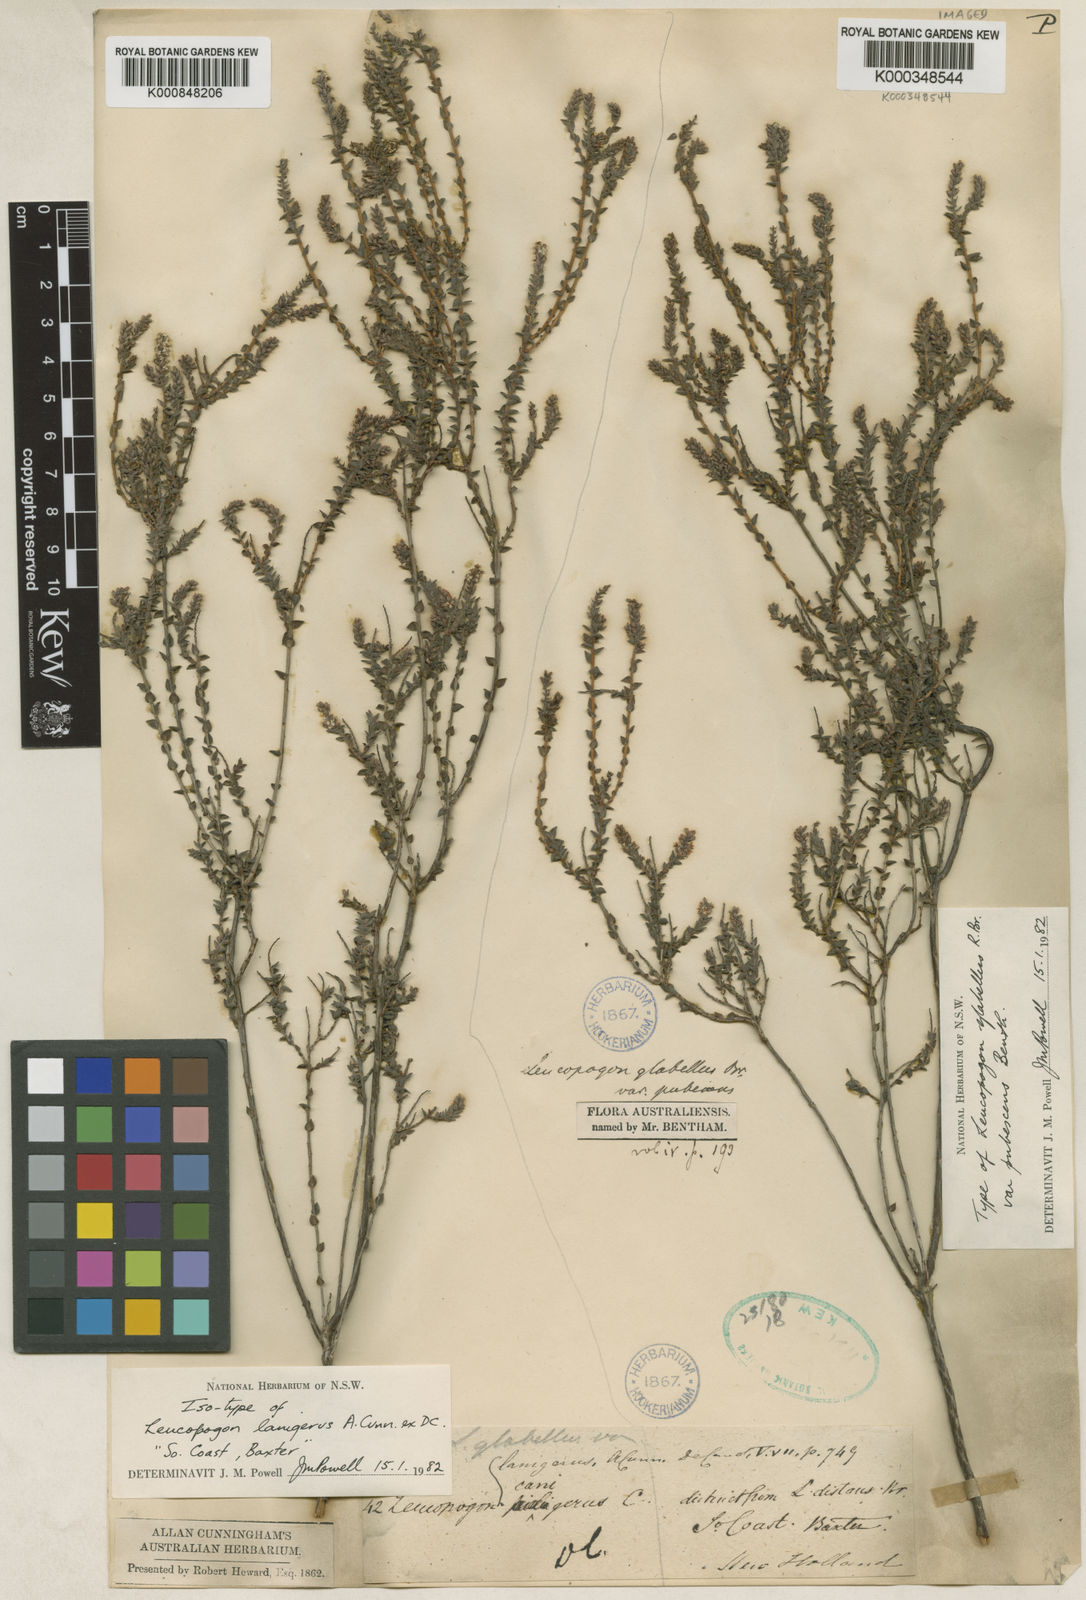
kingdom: Plantae
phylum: Tracheophyta
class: Magnoliopsida
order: Ericales
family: Ericaceae
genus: Leucopogon
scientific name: Leucopogon glabellus
